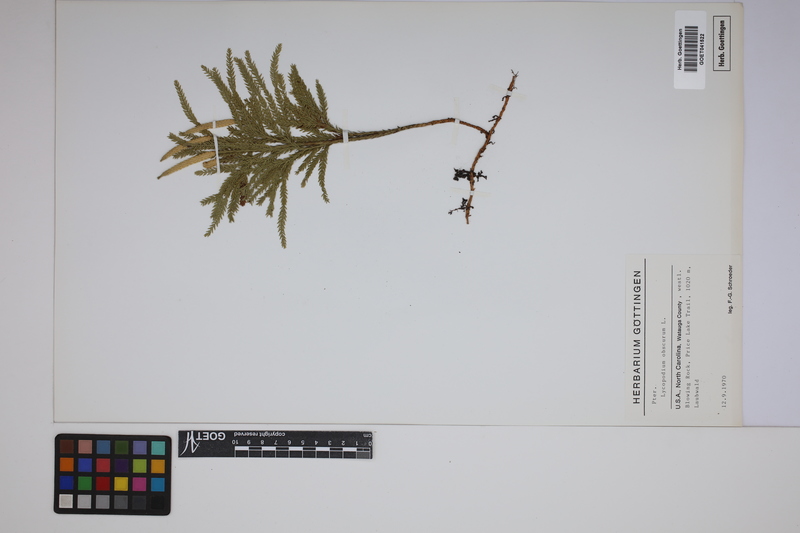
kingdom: Plantae
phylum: Tracheophyta
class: Lycopodiopsida
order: Lycopodiales
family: Lycopodiaceae
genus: Dendrolycopodium
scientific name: Dendrolycopodium obscurum
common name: Common ground-pine
